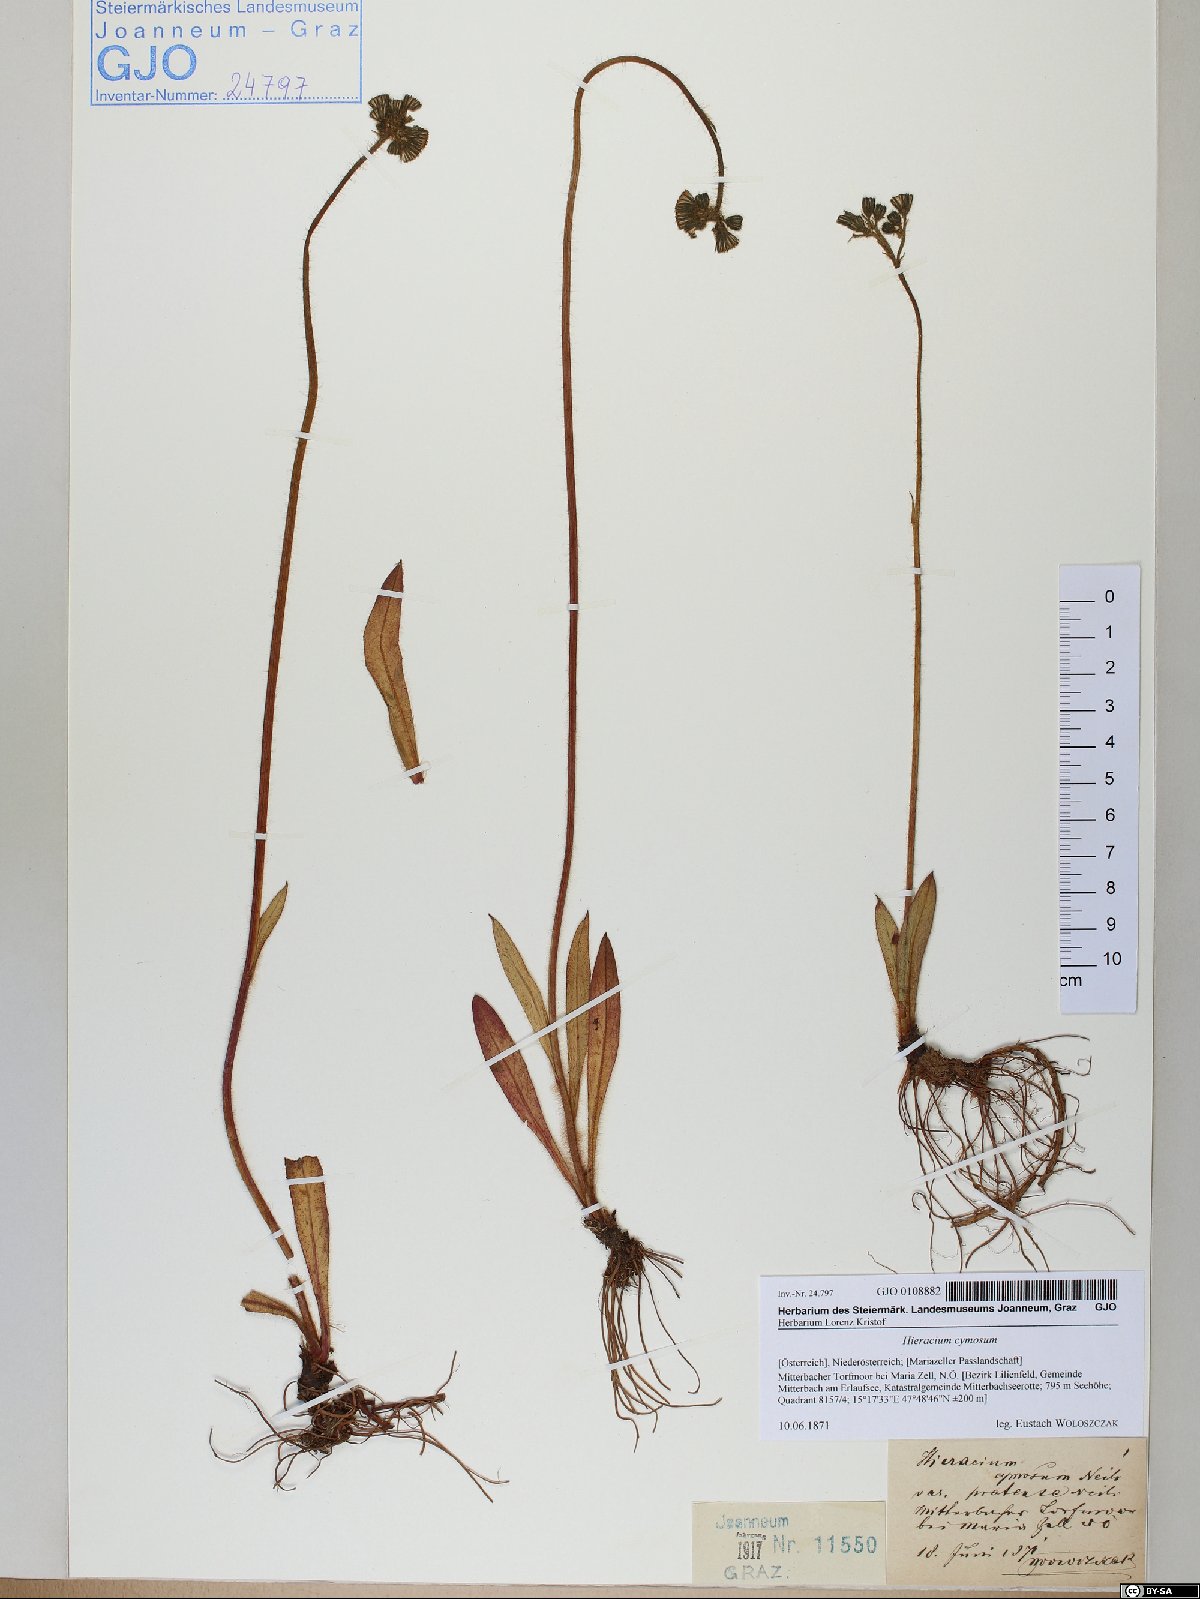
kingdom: Plantae
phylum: Tracheophyta
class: Magnoliopsida
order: Asterales
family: Asteraceae
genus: Pilosella
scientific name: Pilosella cymosa
